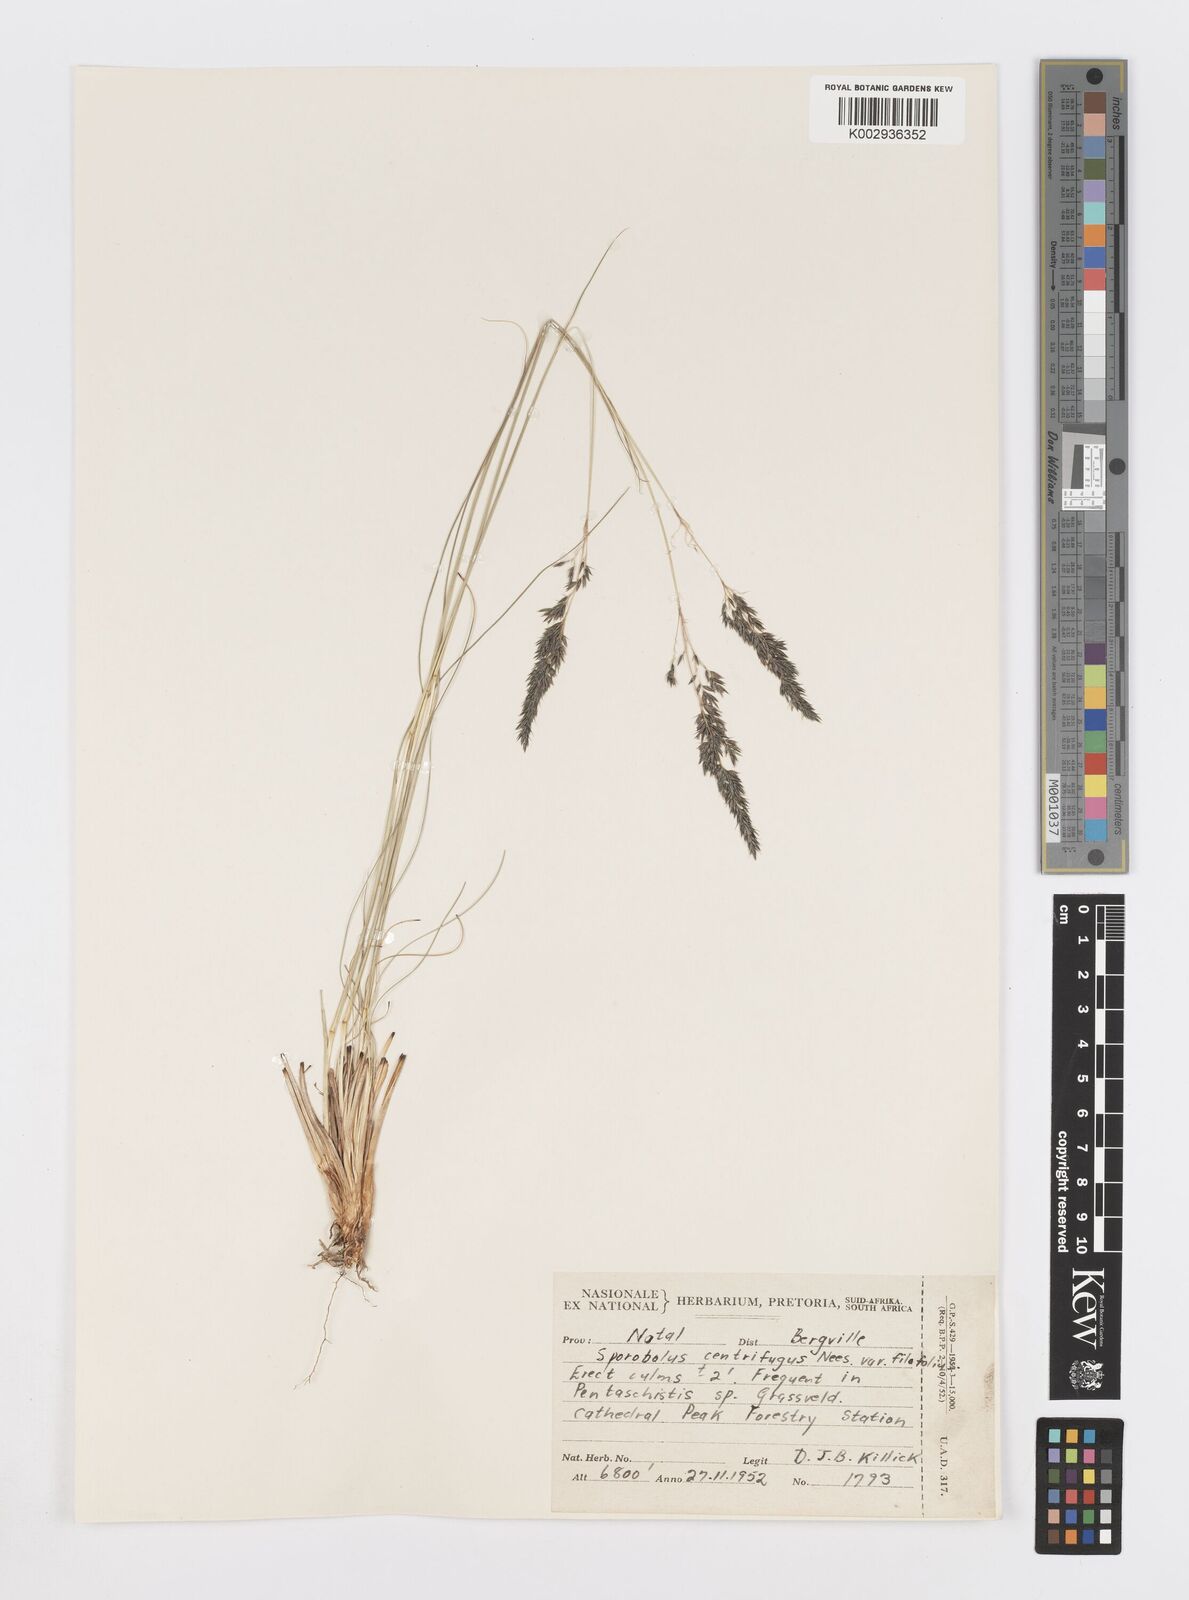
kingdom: Plantae
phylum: Tracheophyta
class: Liliopsida
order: Poales
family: Poaceae
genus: Sporobolus
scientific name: Sporobolus centrifugus
